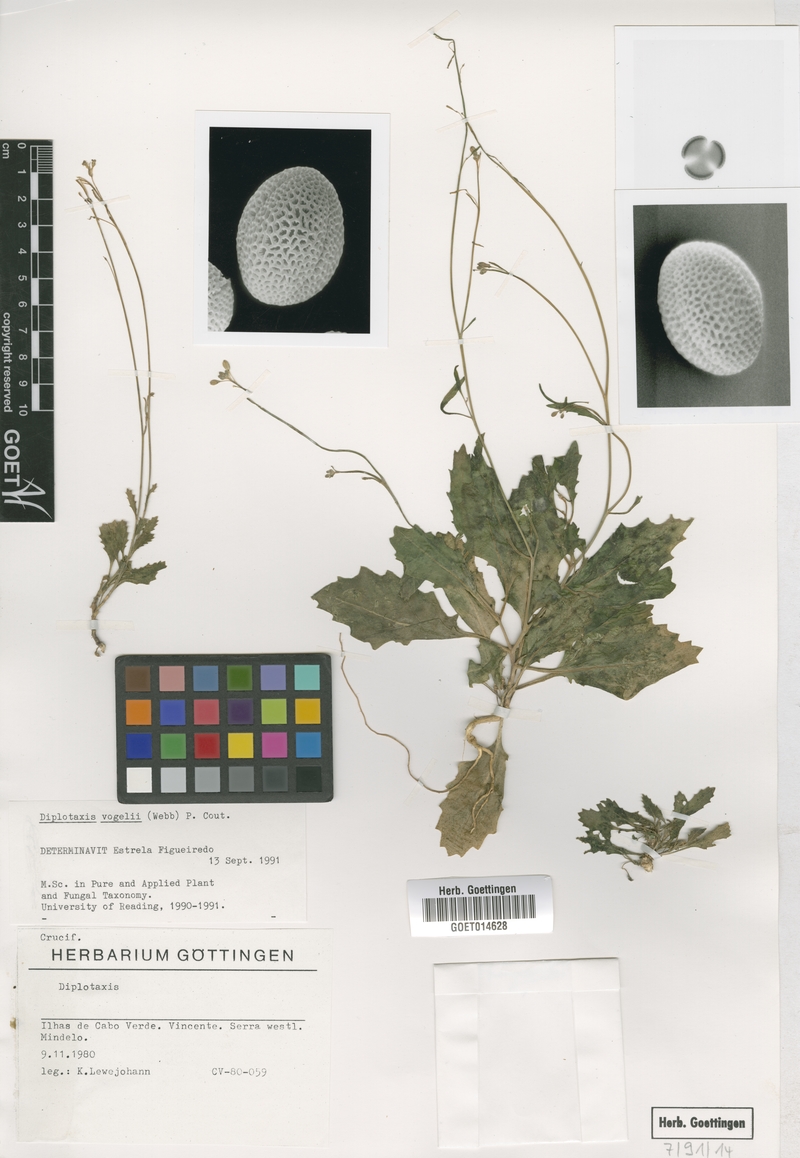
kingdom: Plantae
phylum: Tracheophyta
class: Magnoliopsida
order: Brassicales
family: Brassicaceae
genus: Diplotaxis
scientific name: Diplotaxis vogelii
